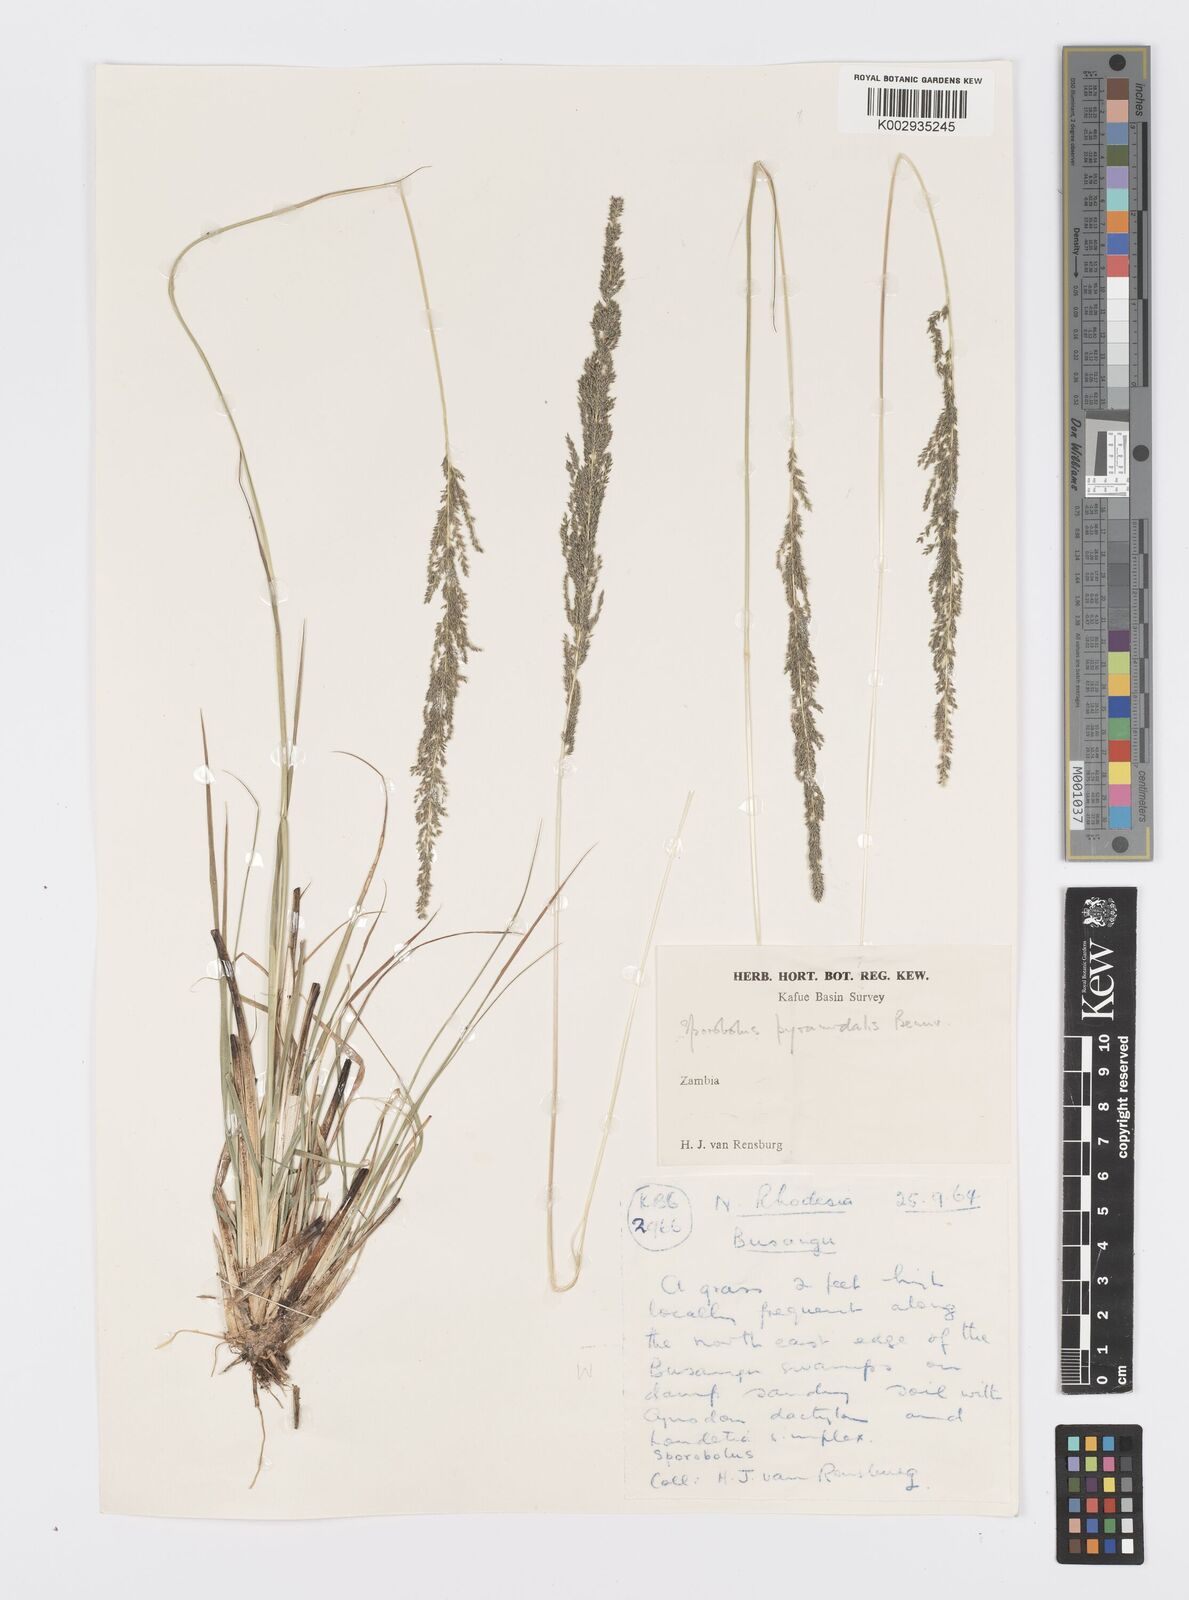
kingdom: Plantae
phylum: Tracheophyta
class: Liliopsida
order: Poales
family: Poaceae
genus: Sporobolus
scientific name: Sporobolus africanus
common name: African dropseed
